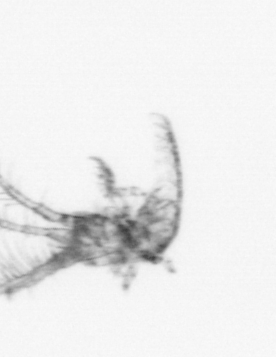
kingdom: Animalia
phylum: Arthropoda
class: Maxillopoda
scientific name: Maxillopoda
